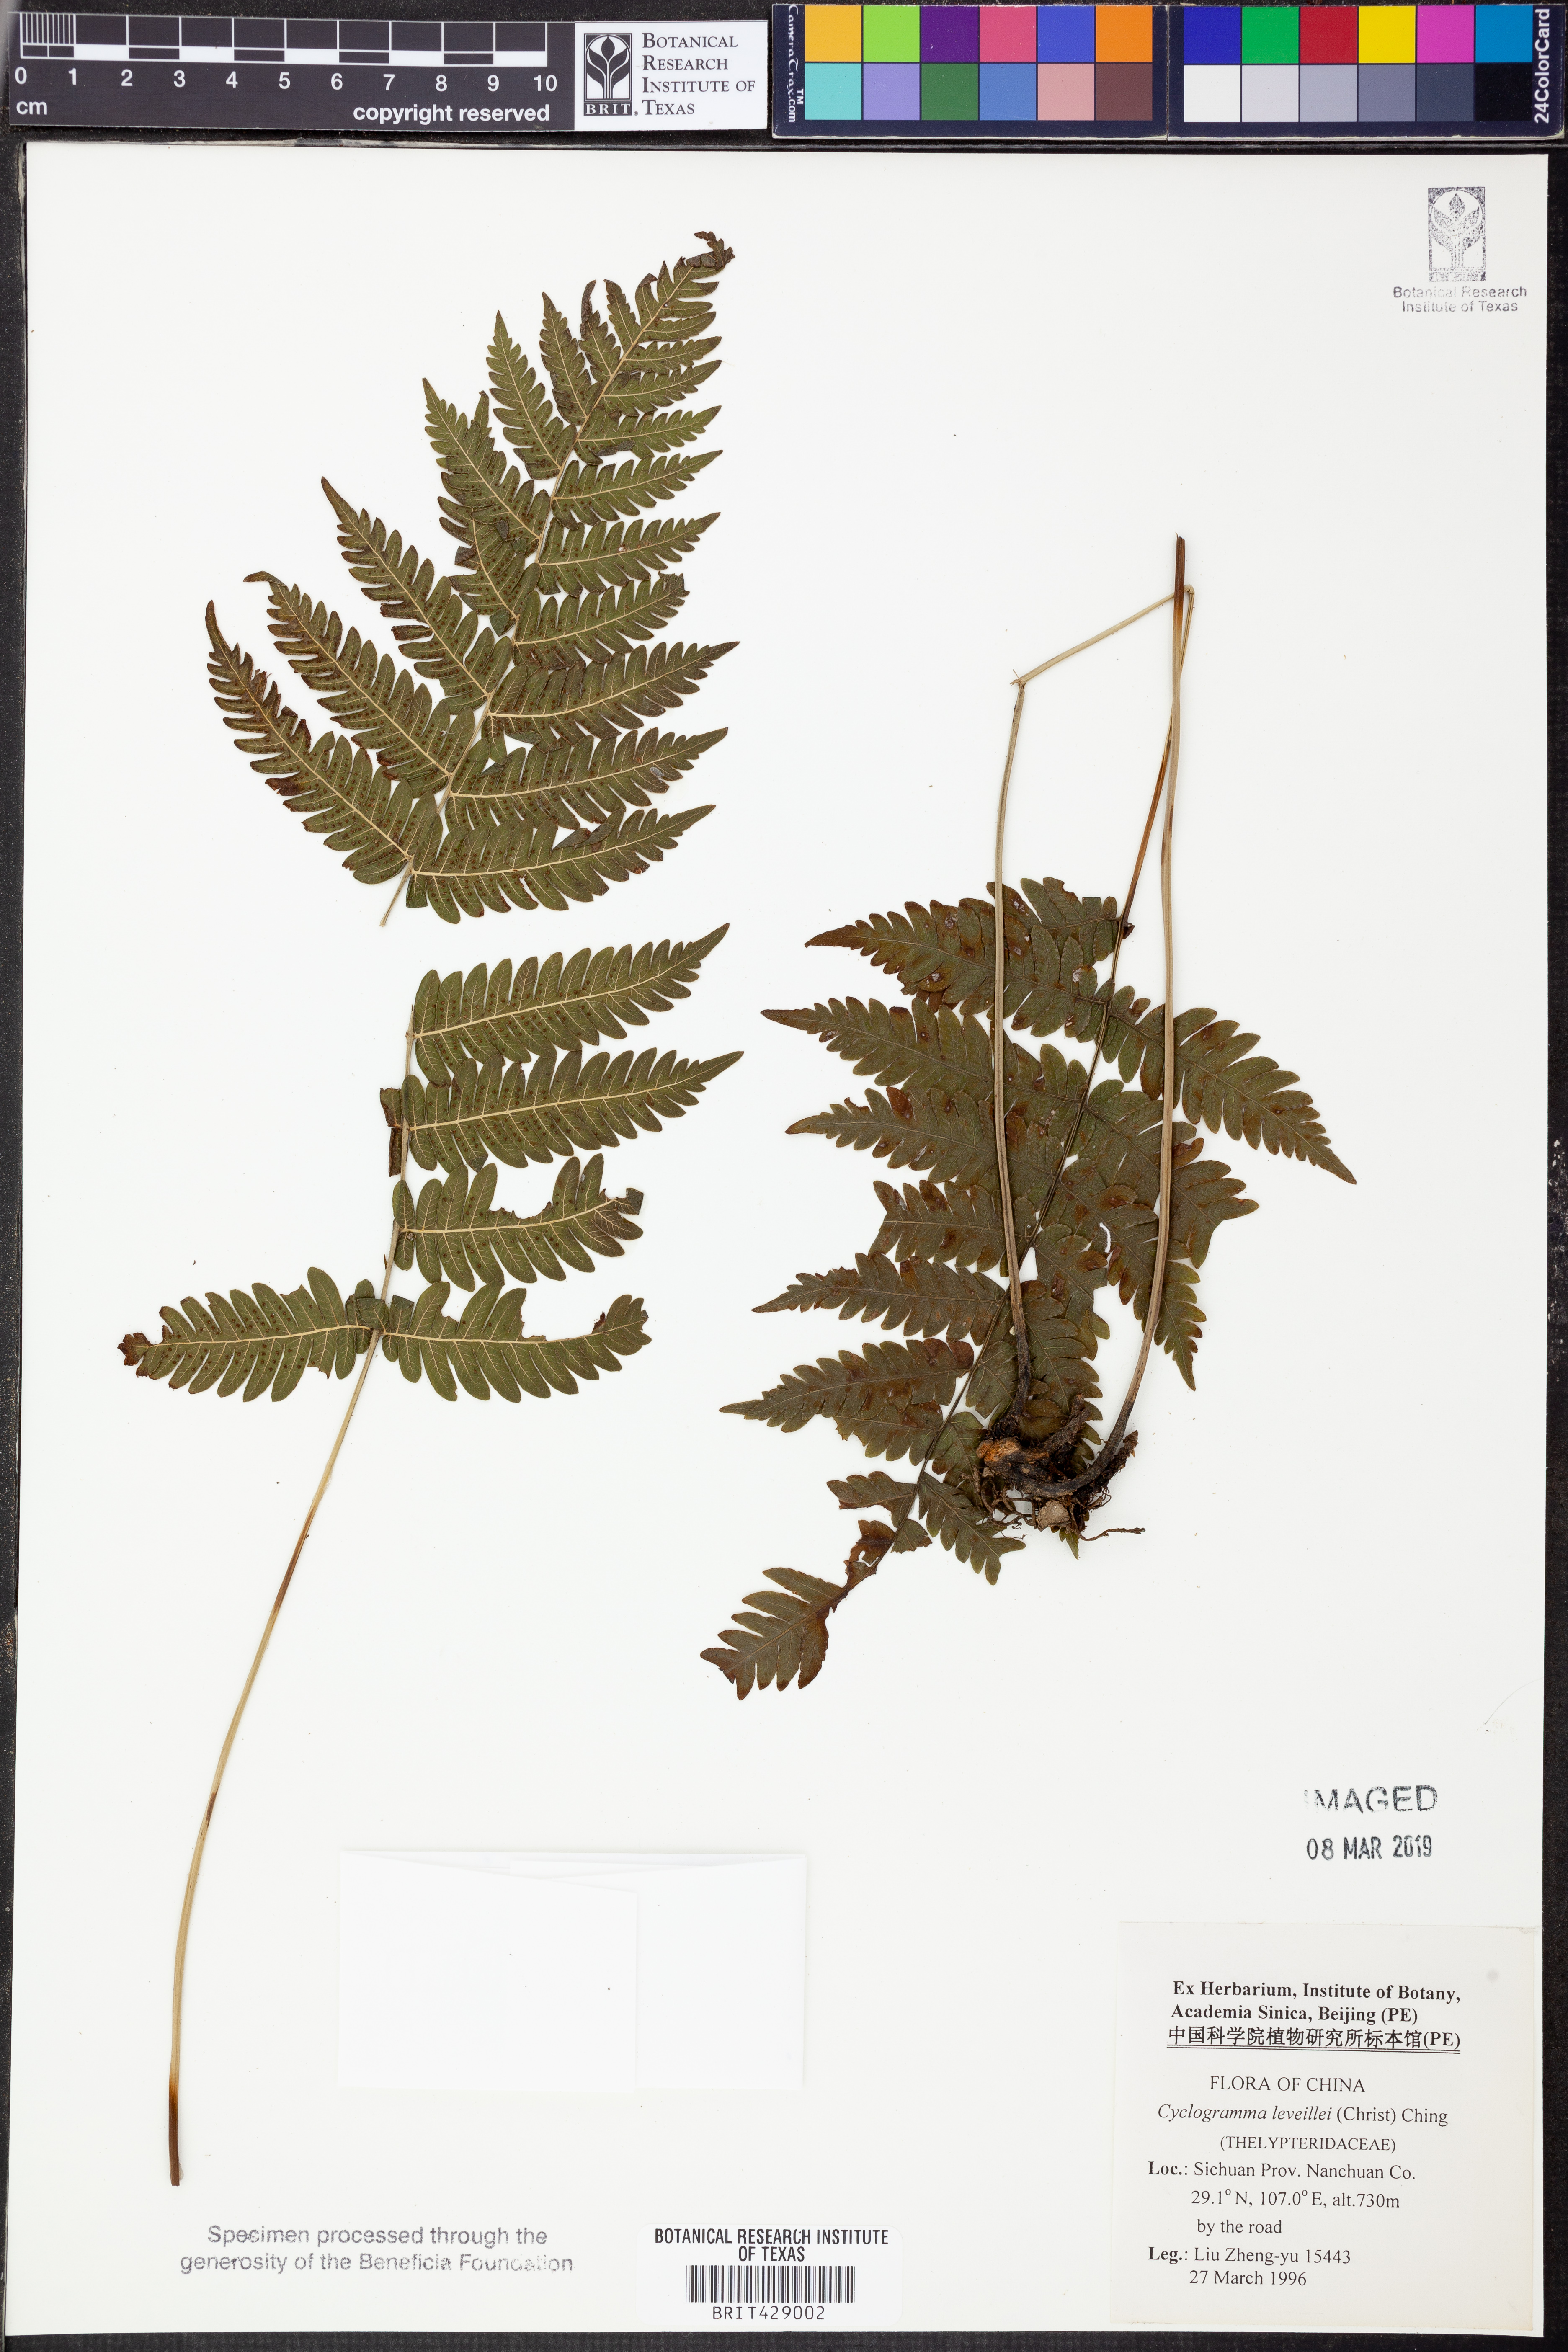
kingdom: Plantae
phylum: Tracheophyta
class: Polypodiopsida
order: Polypodiales
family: Thelypteridaceae
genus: Cyclogramma
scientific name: Cyclogramma leveillei
